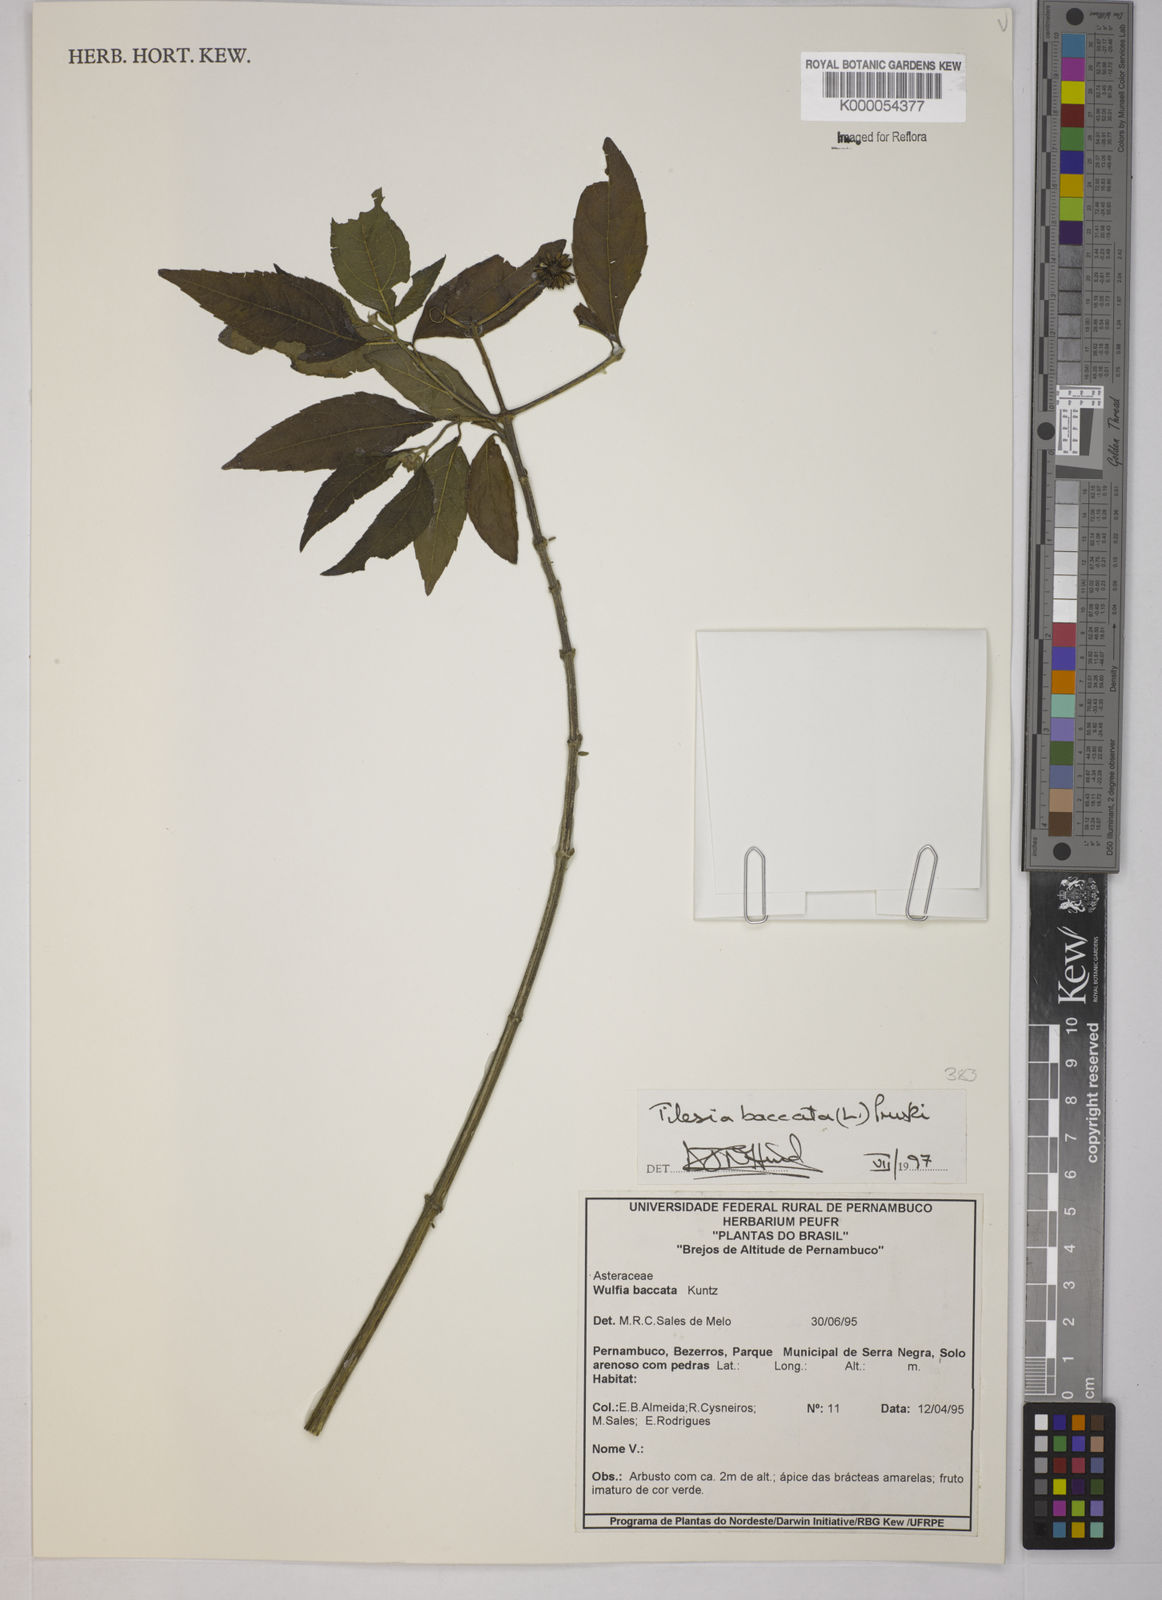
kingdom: Plantae
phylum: Tracheophyta
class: Magnoliopsida
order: Asterales
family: Asteraceae
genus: Tilesia
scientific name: Tilesia baccata
